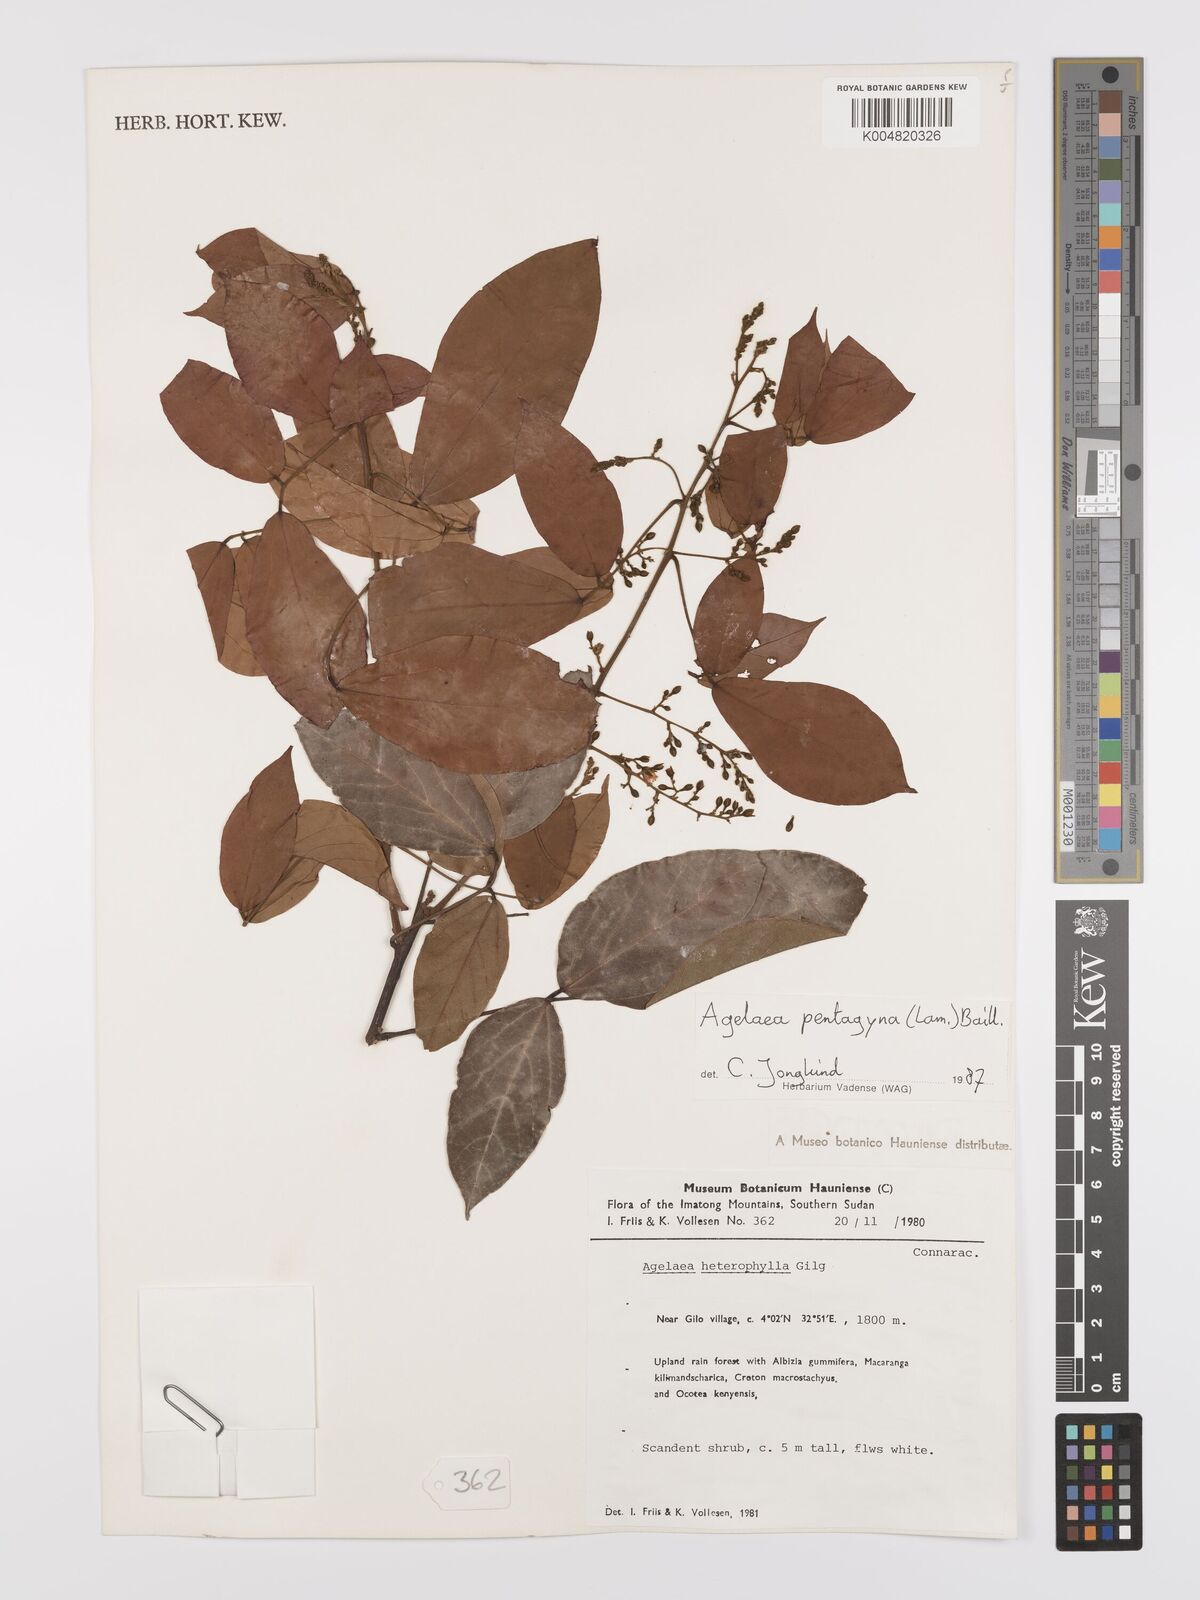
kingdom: Plantae
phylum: Tracheophyta
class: Magnoliopsida
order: Oxalidales
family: Connaraceae
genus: Agelaea
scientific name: Agelaea pentagyna
